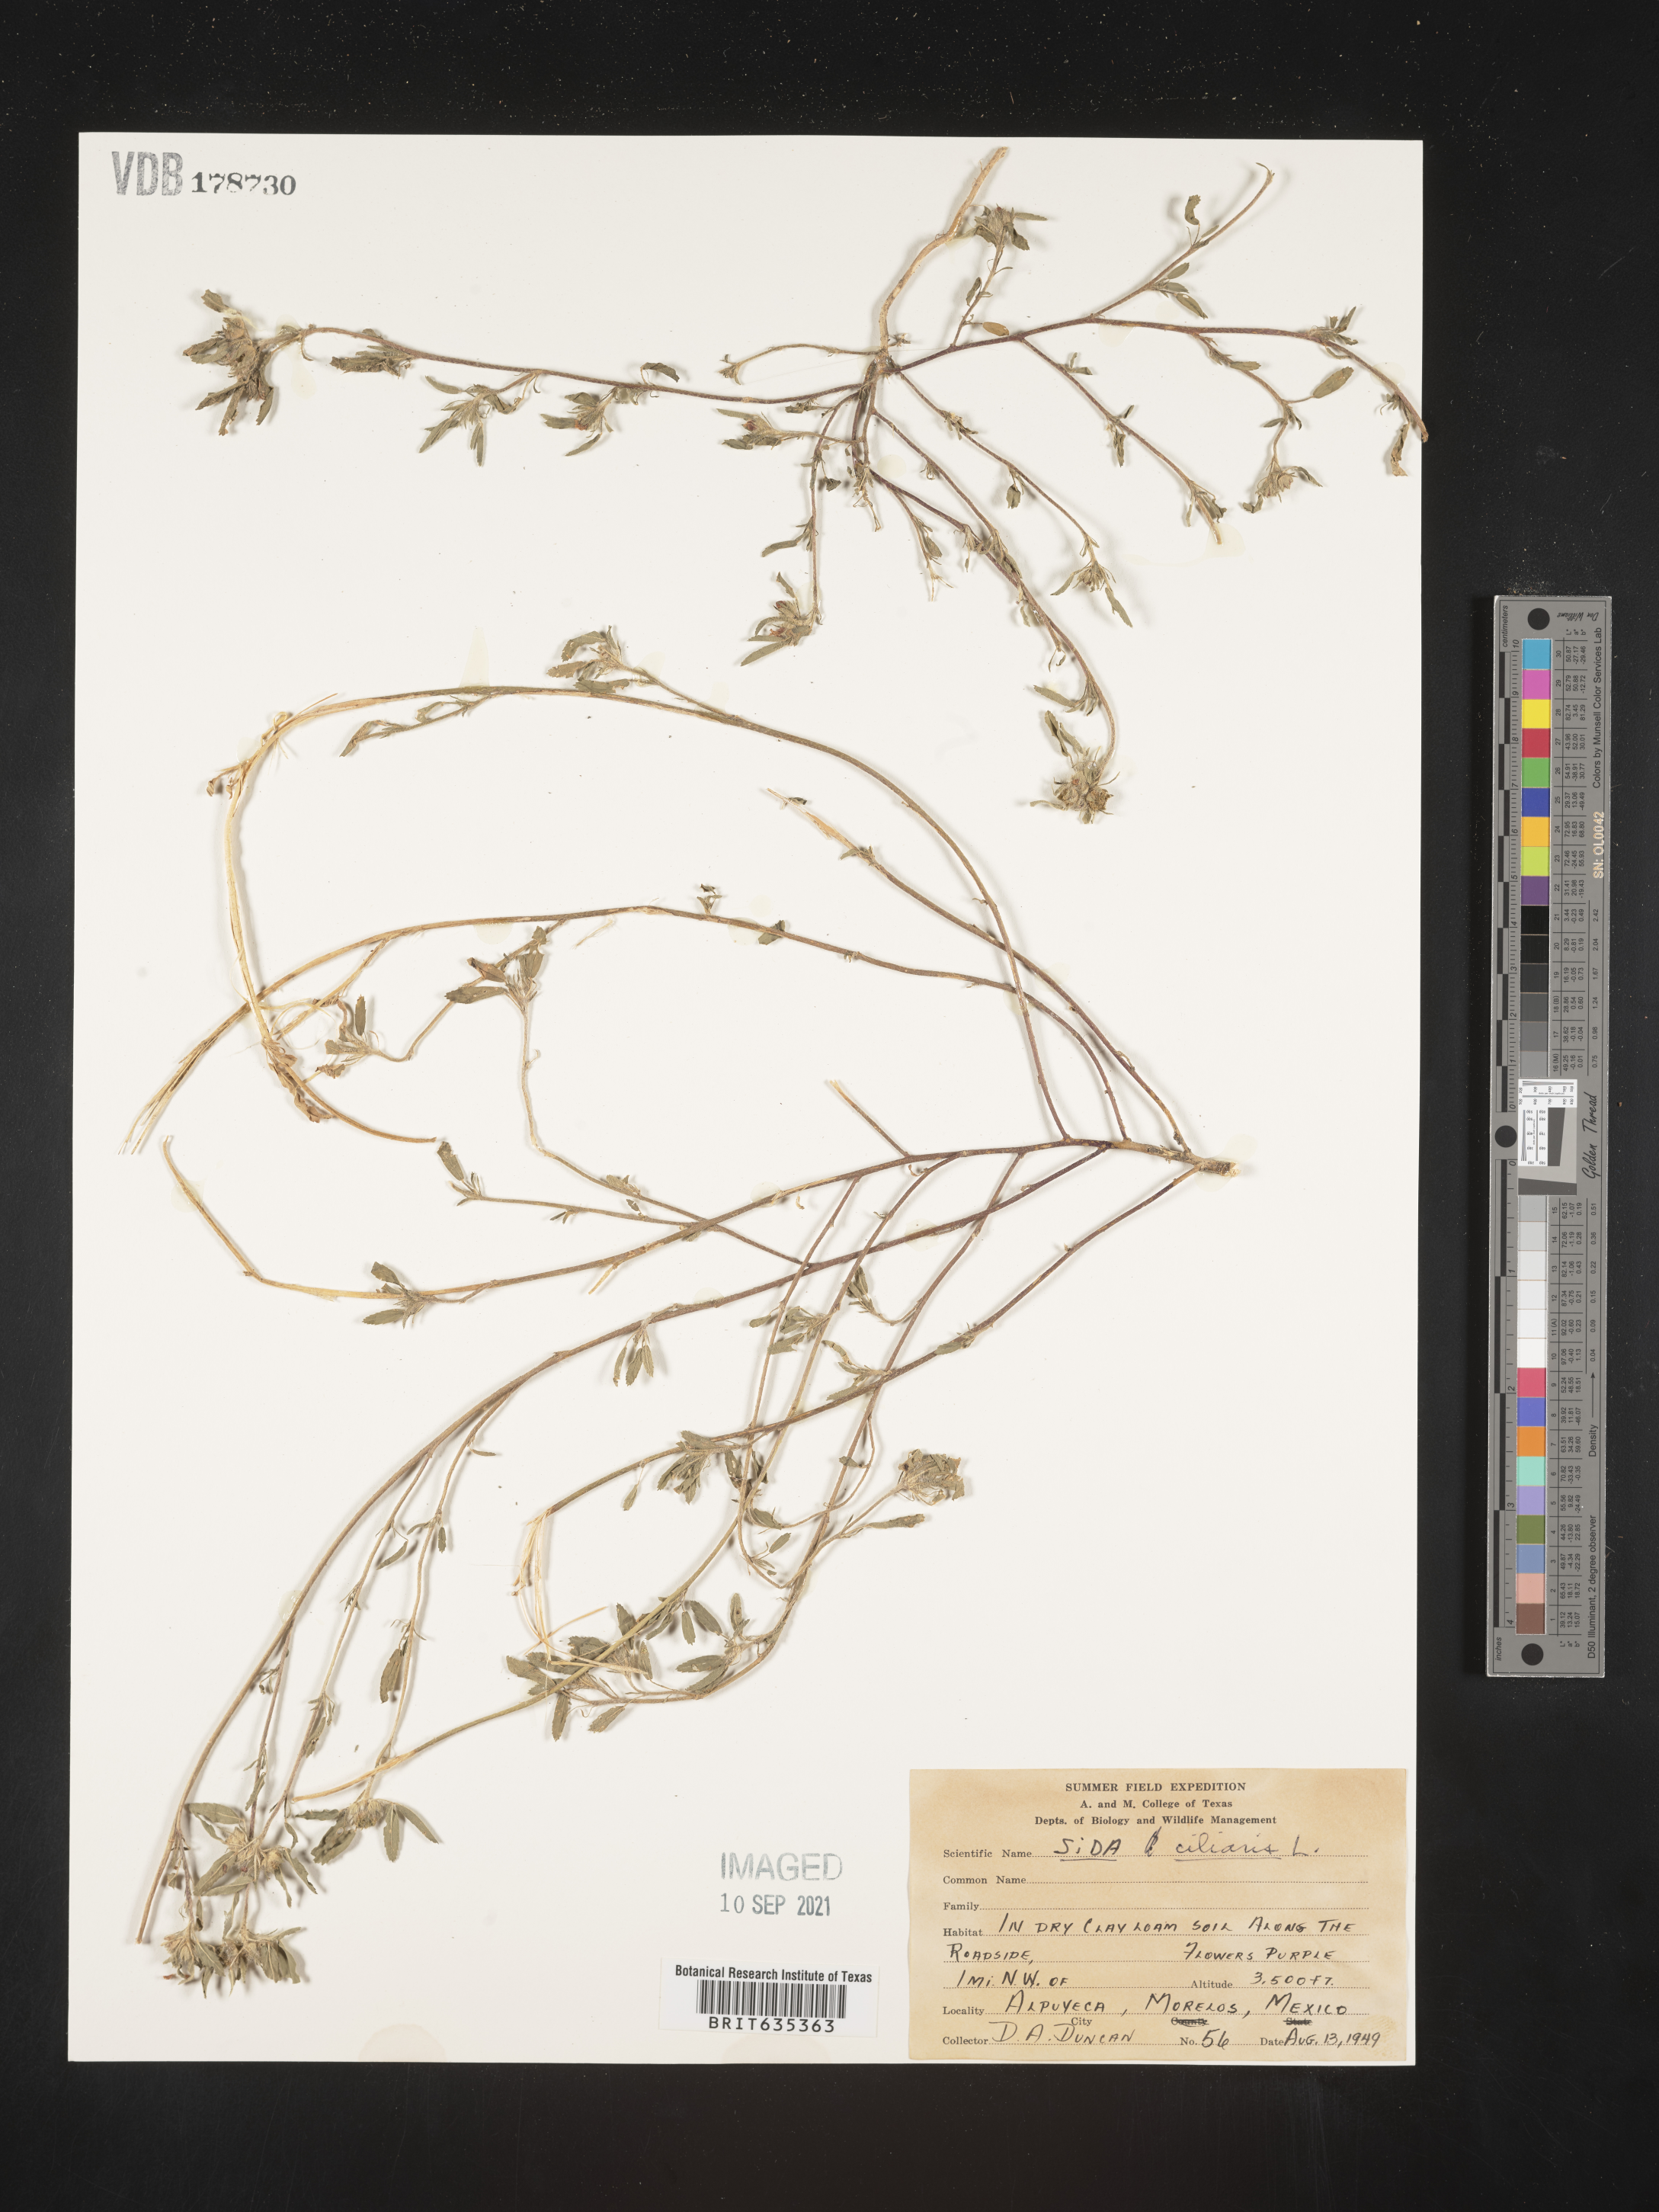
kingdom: Plantae
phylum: Tracheophyta
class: Magnoliopsida
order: Malvales
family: Malvaceae
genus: Sida
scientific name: Sida
